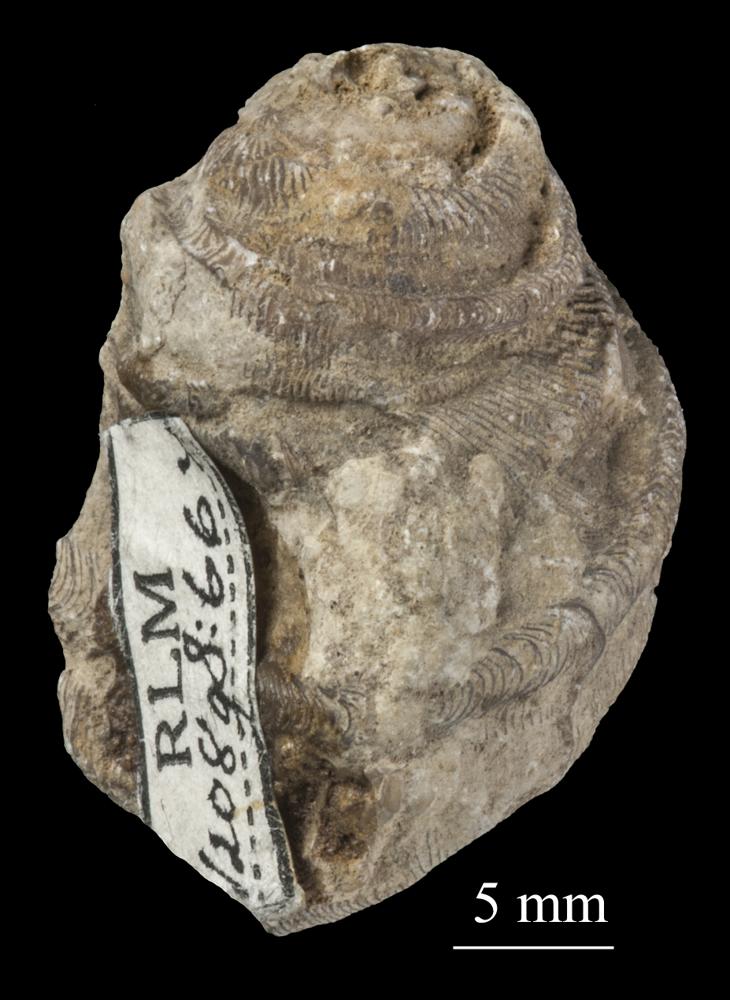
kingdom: Animalia
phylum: Mollusca
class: Gastropoda
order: Pleurotomariida
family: Phanerotrematidae
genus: Brachytomaria
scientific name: Brachytomaria nodulosa
